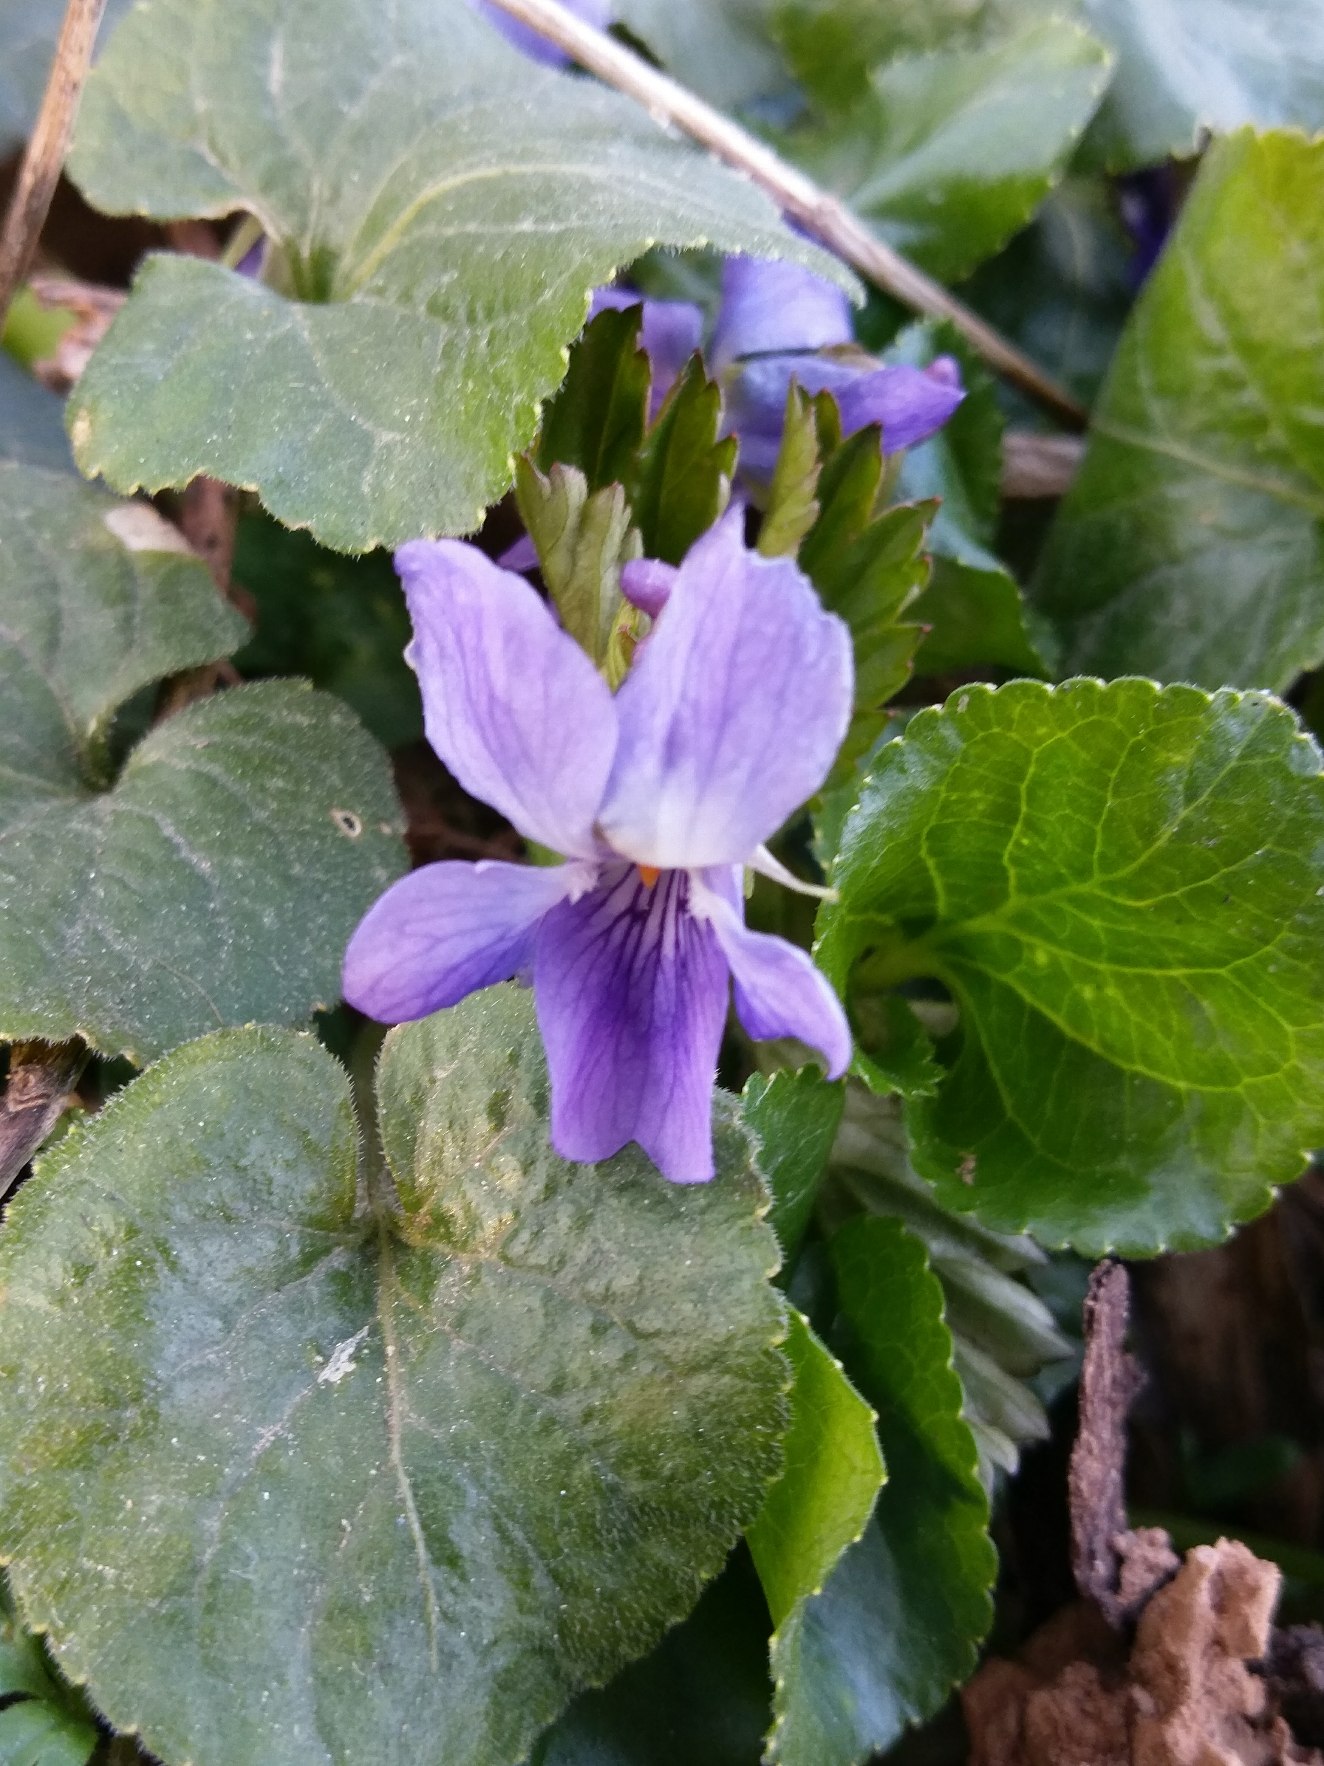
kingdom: Plantae
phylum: Tracheophyta
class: Magnoliopsida
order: Malpighiales
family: Violaceae
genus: Viola
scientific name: Viola odorata
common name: Marts-viol
